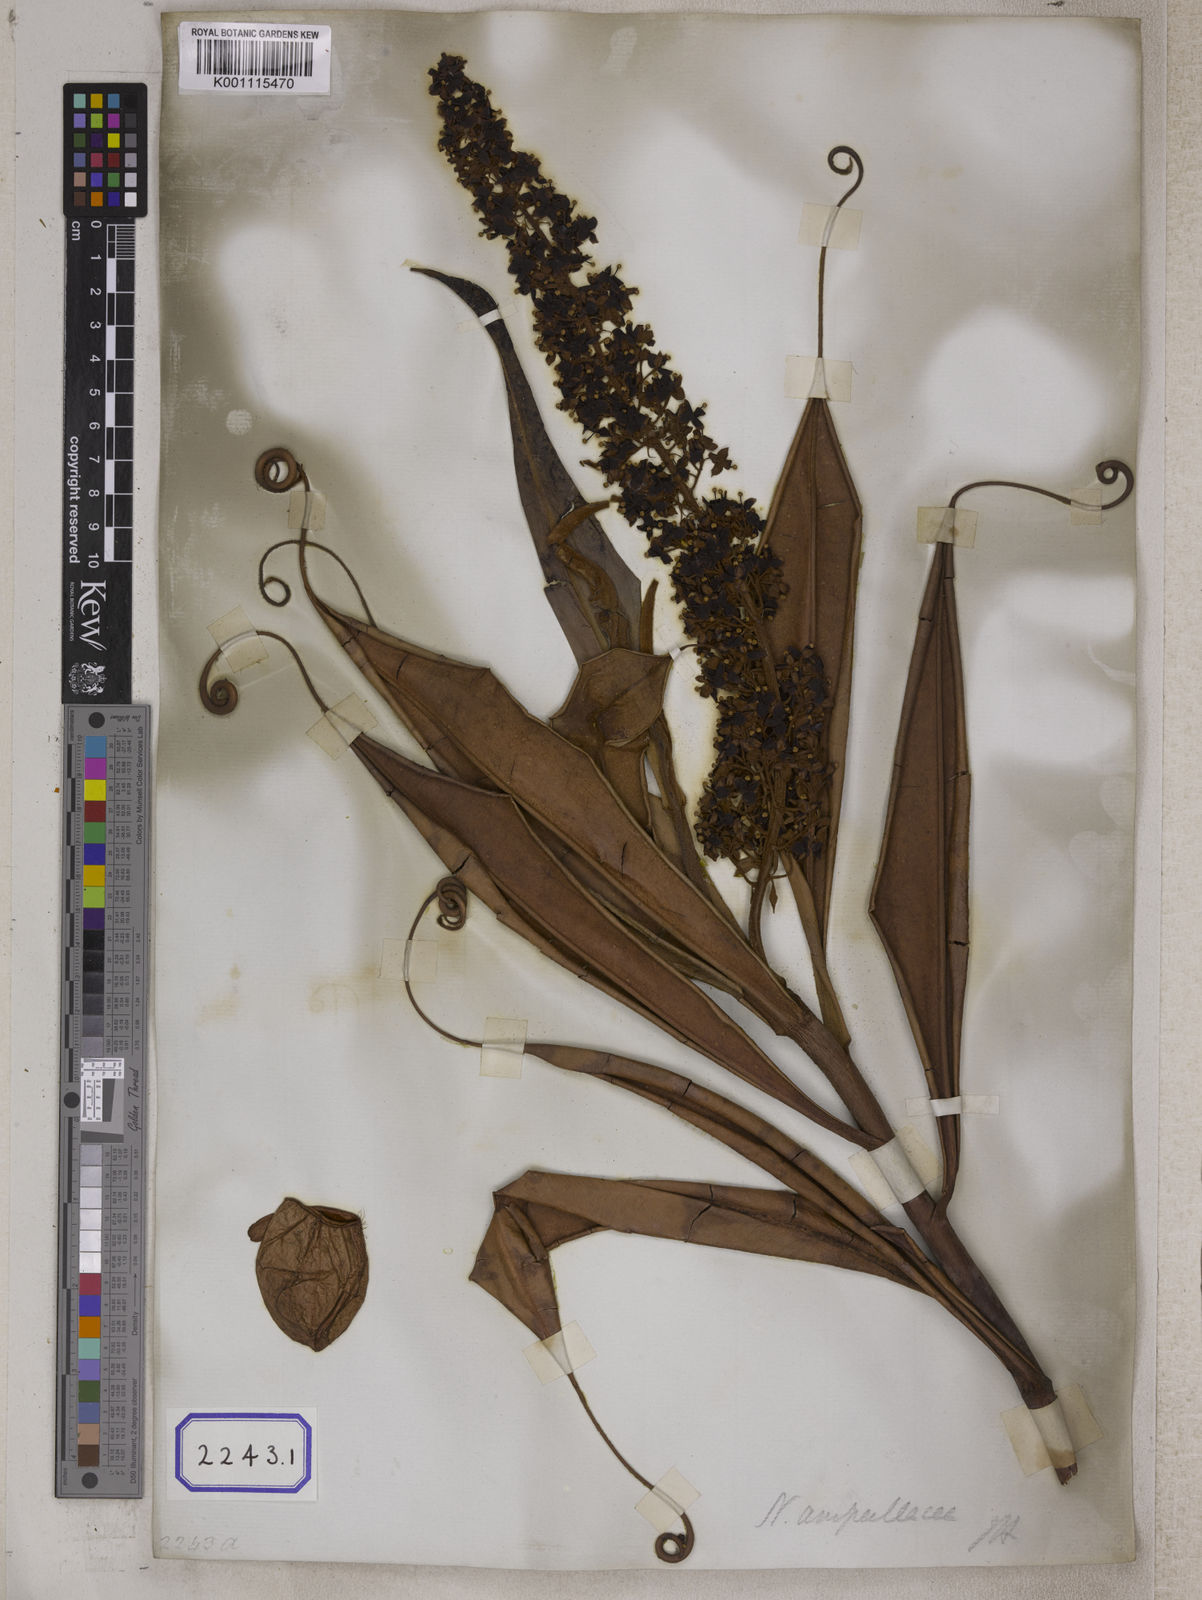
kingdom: Plantae
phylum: Tracheophyta
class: Magnoliopsida
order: Caryophyllales
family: Nepenthaceae
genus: Nepenthes
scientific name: Nepenthes ampullaria
